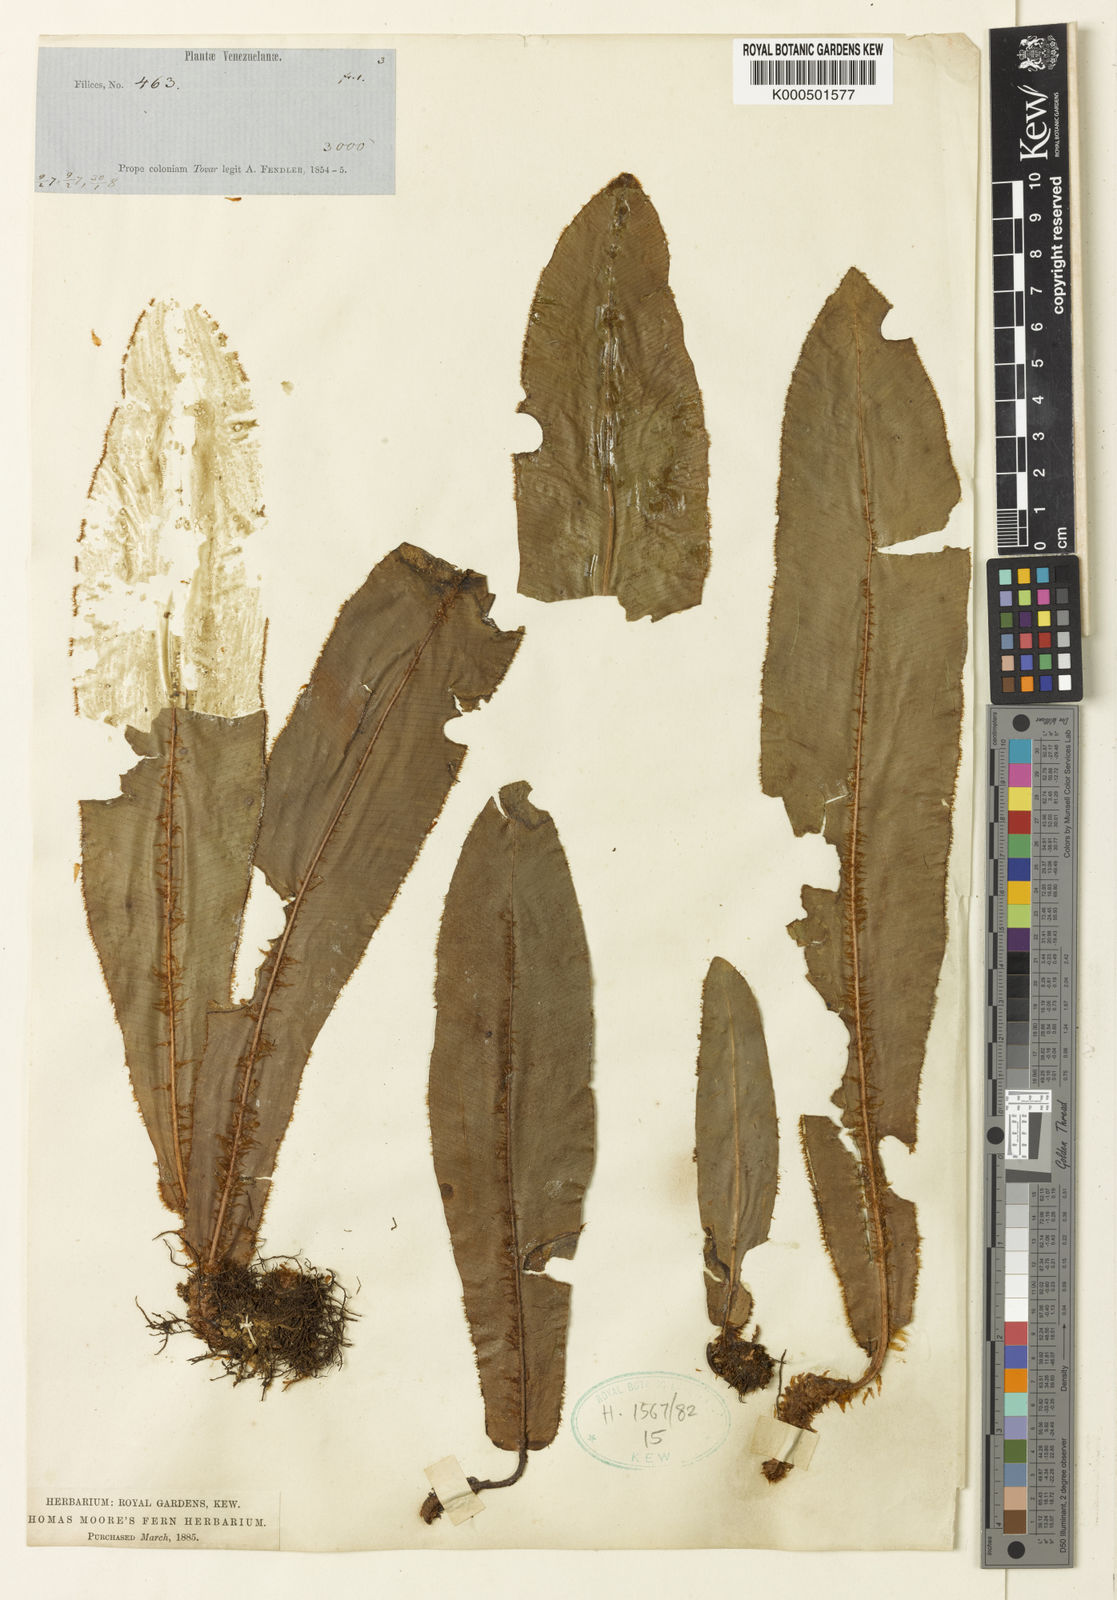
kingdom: Plantae
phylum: Tracheophyta
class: Polypodiopsida
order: Polypodiales
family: Dryopteridaceae
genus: Elaphoglossum
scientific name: Elaphoglossum fendleri
